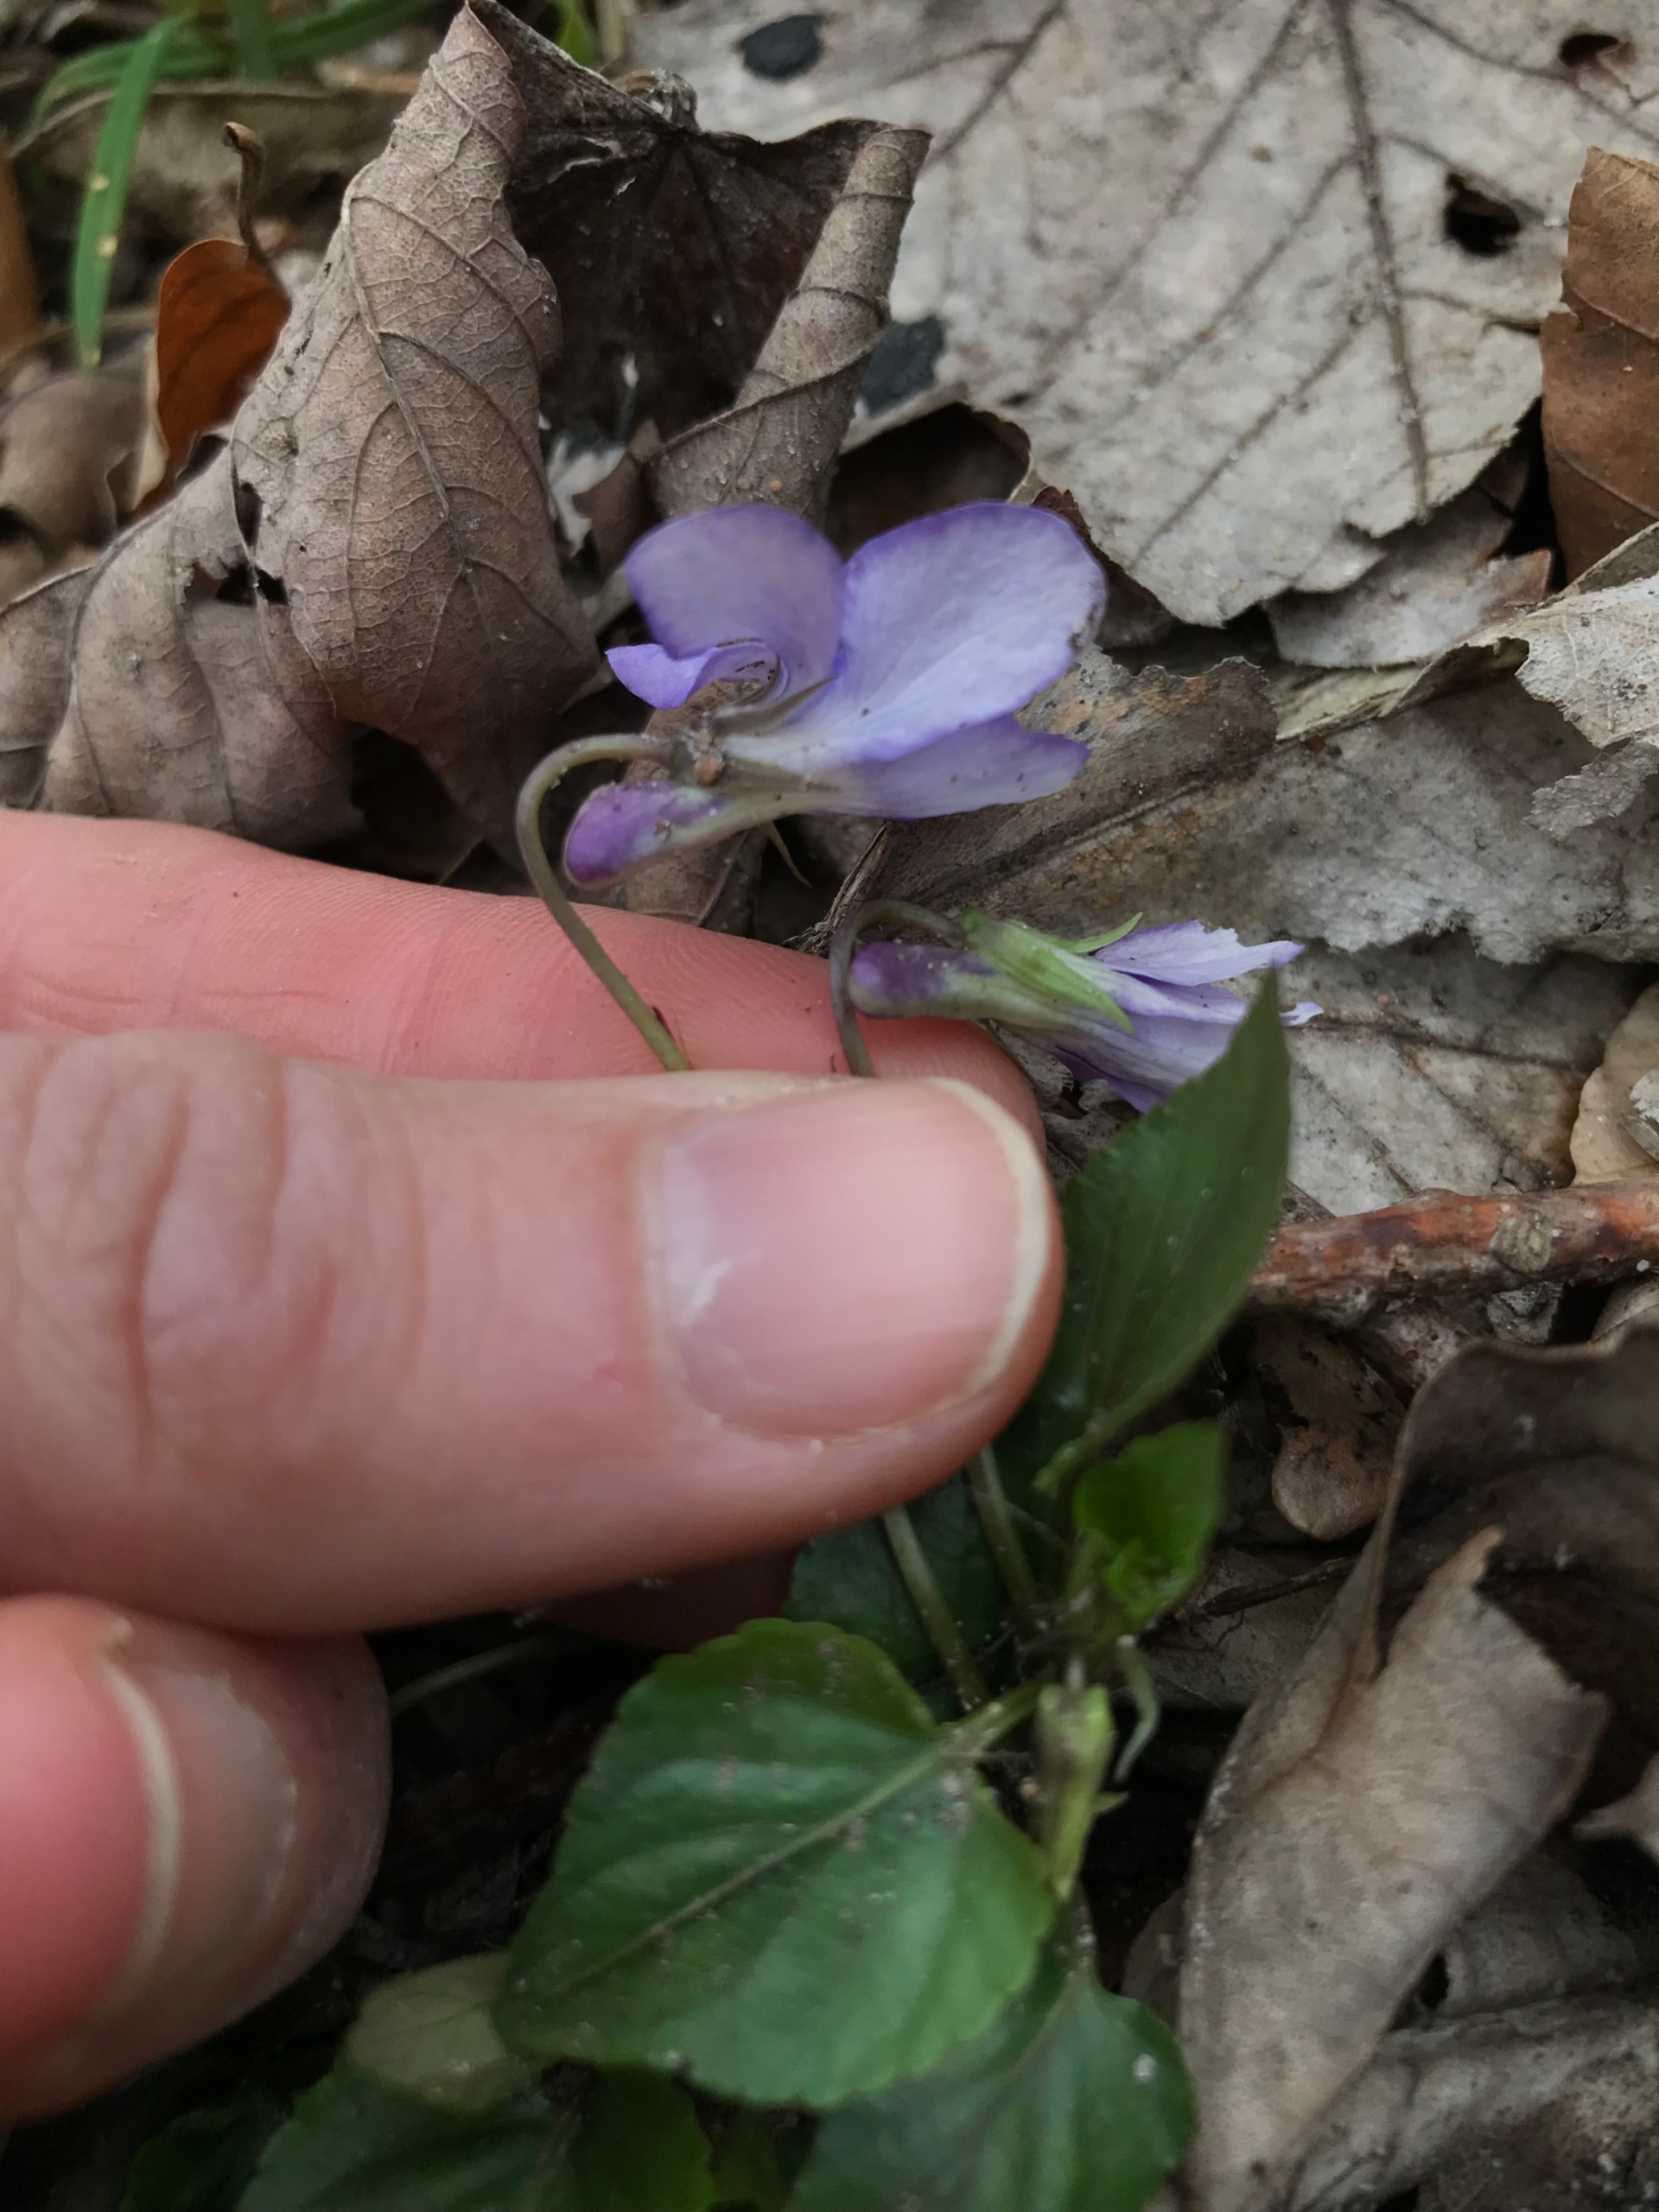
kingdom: Plantae
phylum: Tracheophyta
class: Magnoliopsida
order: Malpighiales
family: Violaceae
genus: Viola
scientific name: Viola reichenbachiana
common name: Skov-viol
